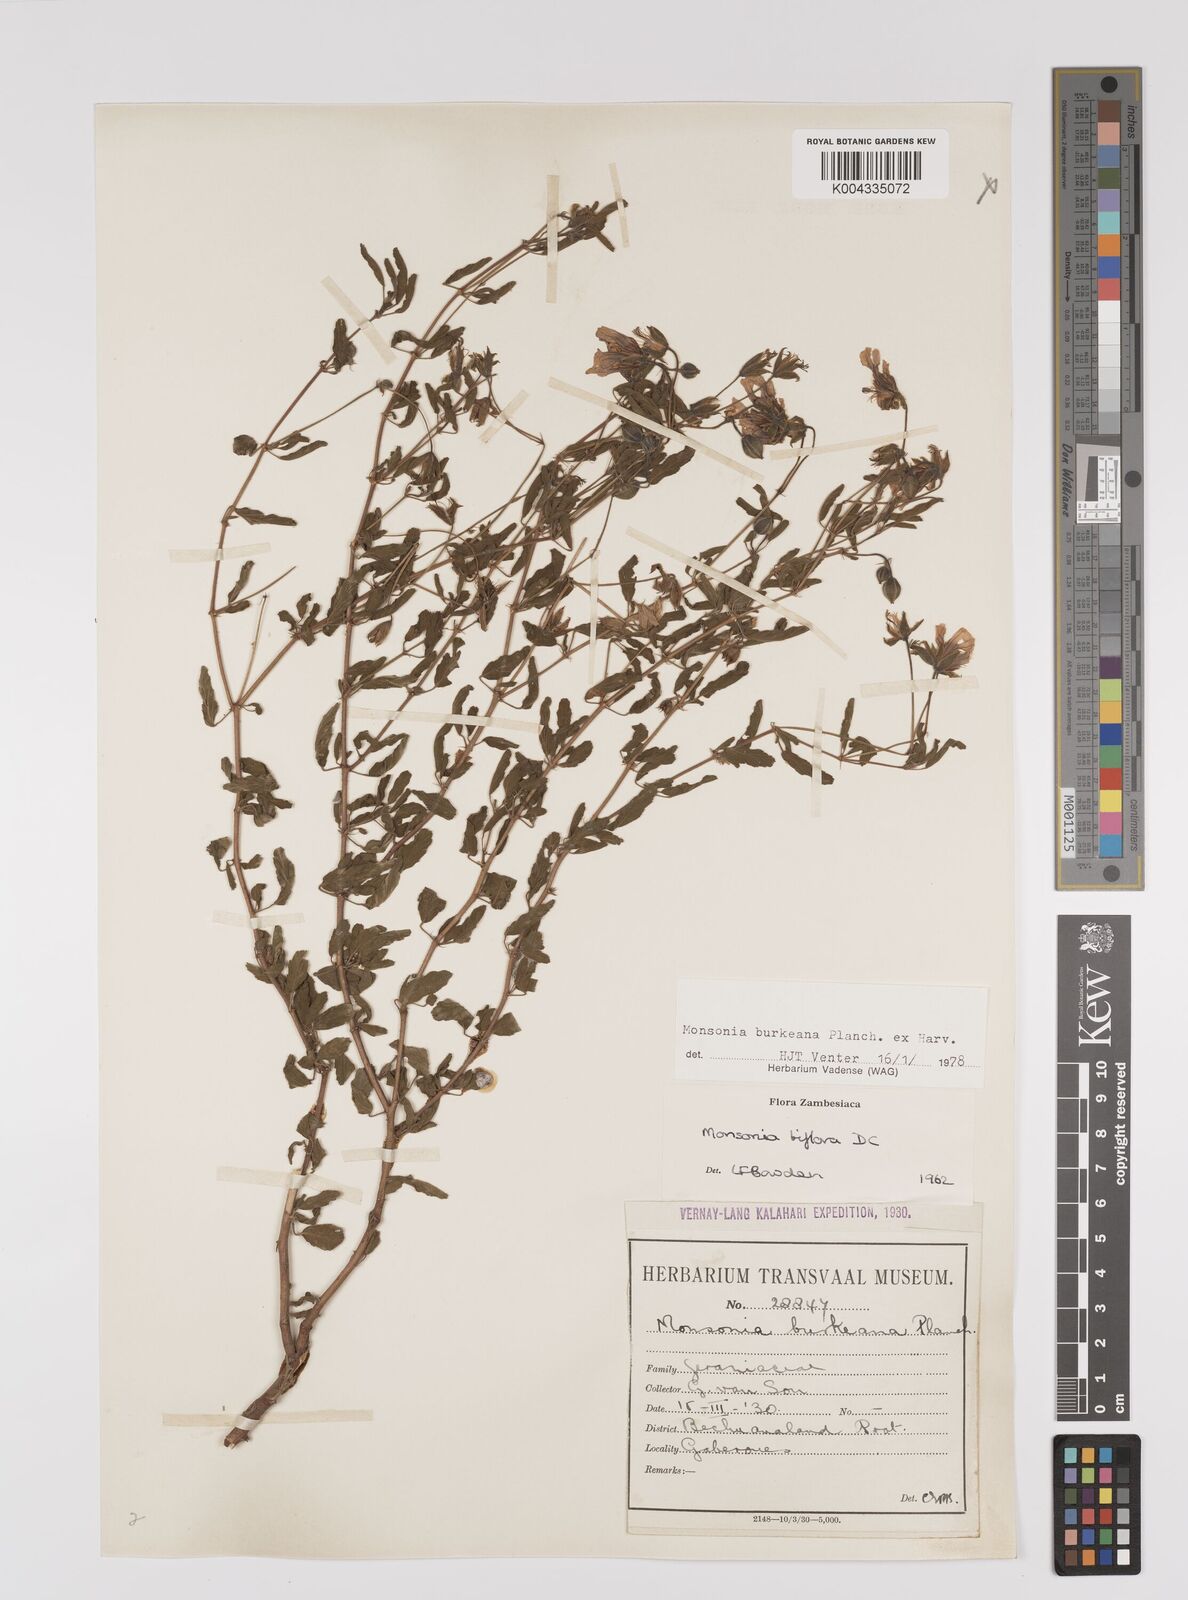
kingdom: Plantae
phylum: Tracheophyta
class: Magnoliopsida
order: Geraniales
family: Geraniaceae
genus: Monsonia
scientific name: Monsonia biflora
